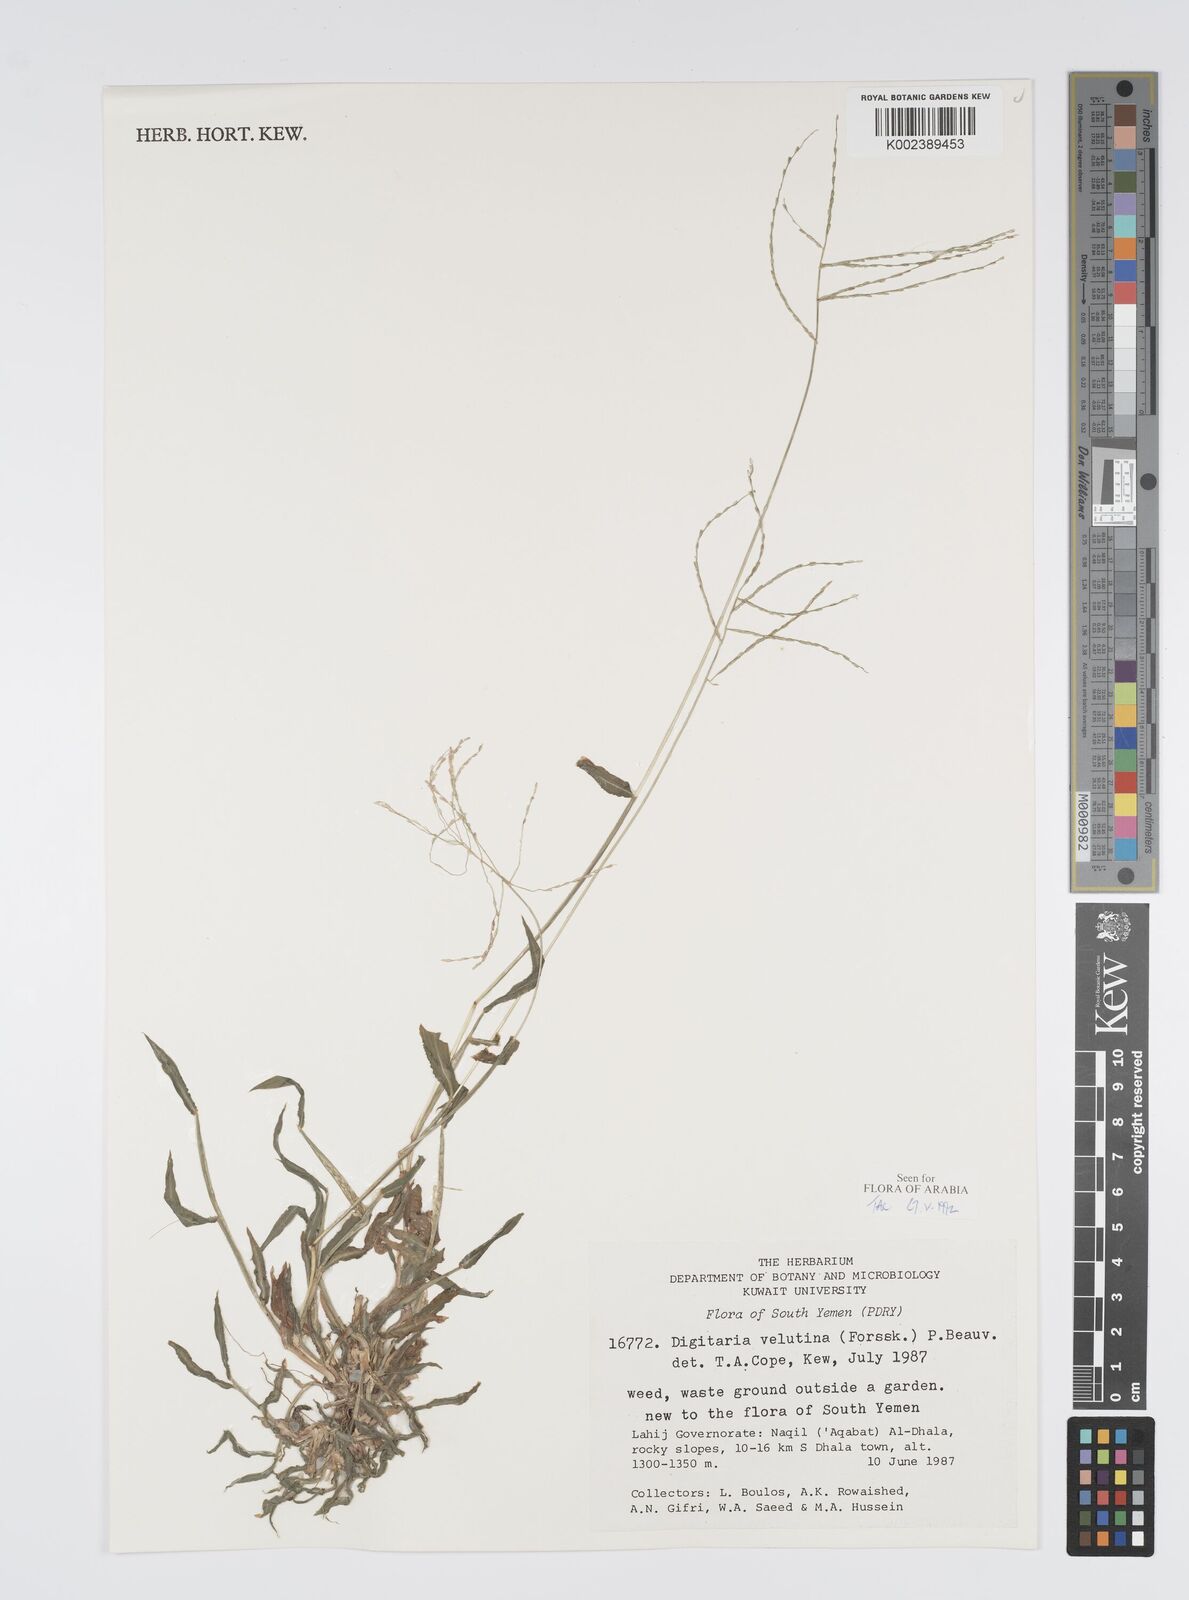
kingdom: Plantae
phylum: Tracheophyta
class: Liliopsida
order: Poales
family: Poaceae
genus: Digitaria
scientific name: Digitaria velutina
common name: Long-plume finger grass
